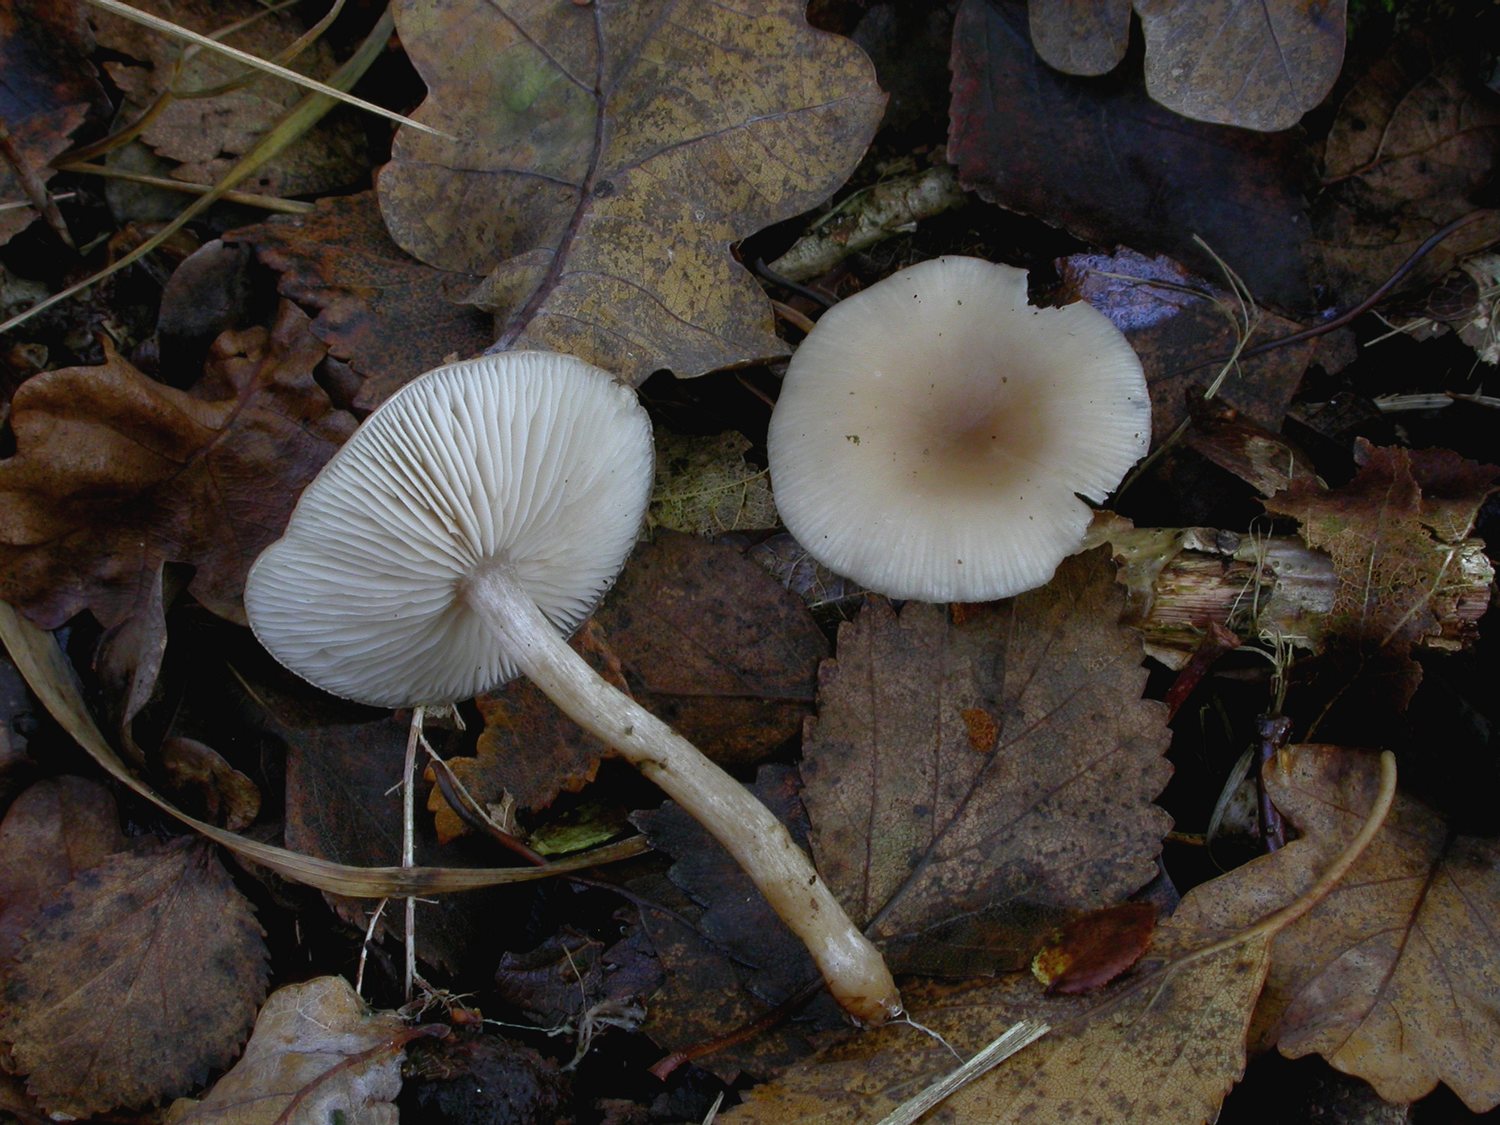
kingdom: Fungi
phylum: Basidiomycota
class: Agaricomycetes
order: Agaricales
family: Tricholomataceae
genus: Clitocybe
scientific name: Clitocybe fragrans
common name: vellugtende tragthat
